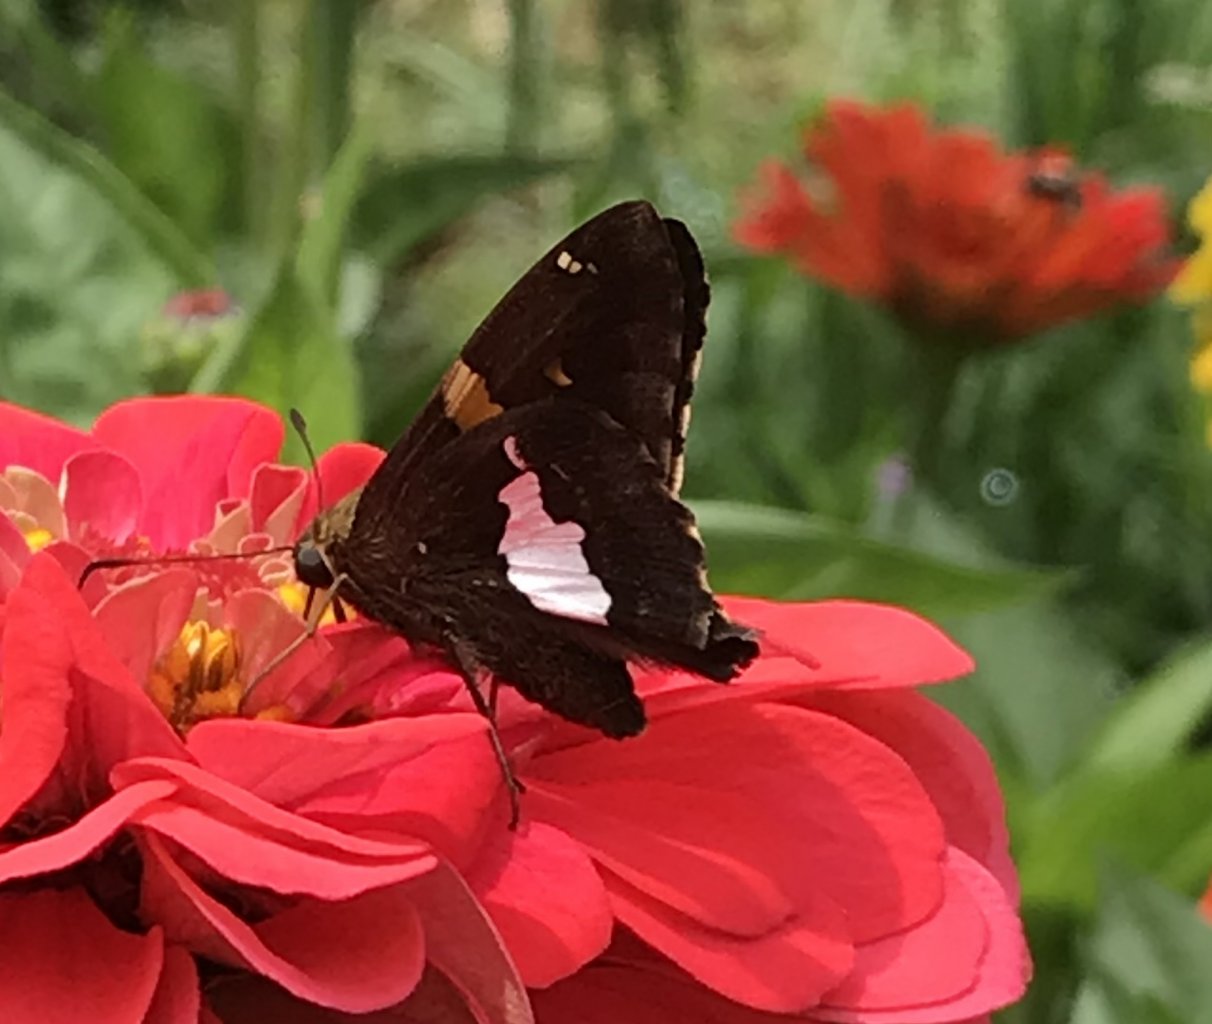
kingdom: Animalia
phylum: Arthropoda
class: Insecta
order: Lepidoptera
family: Hesperiidae
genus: Epargyreus
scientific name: Epargyreus clarus
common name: Silver-spotted Skipper
